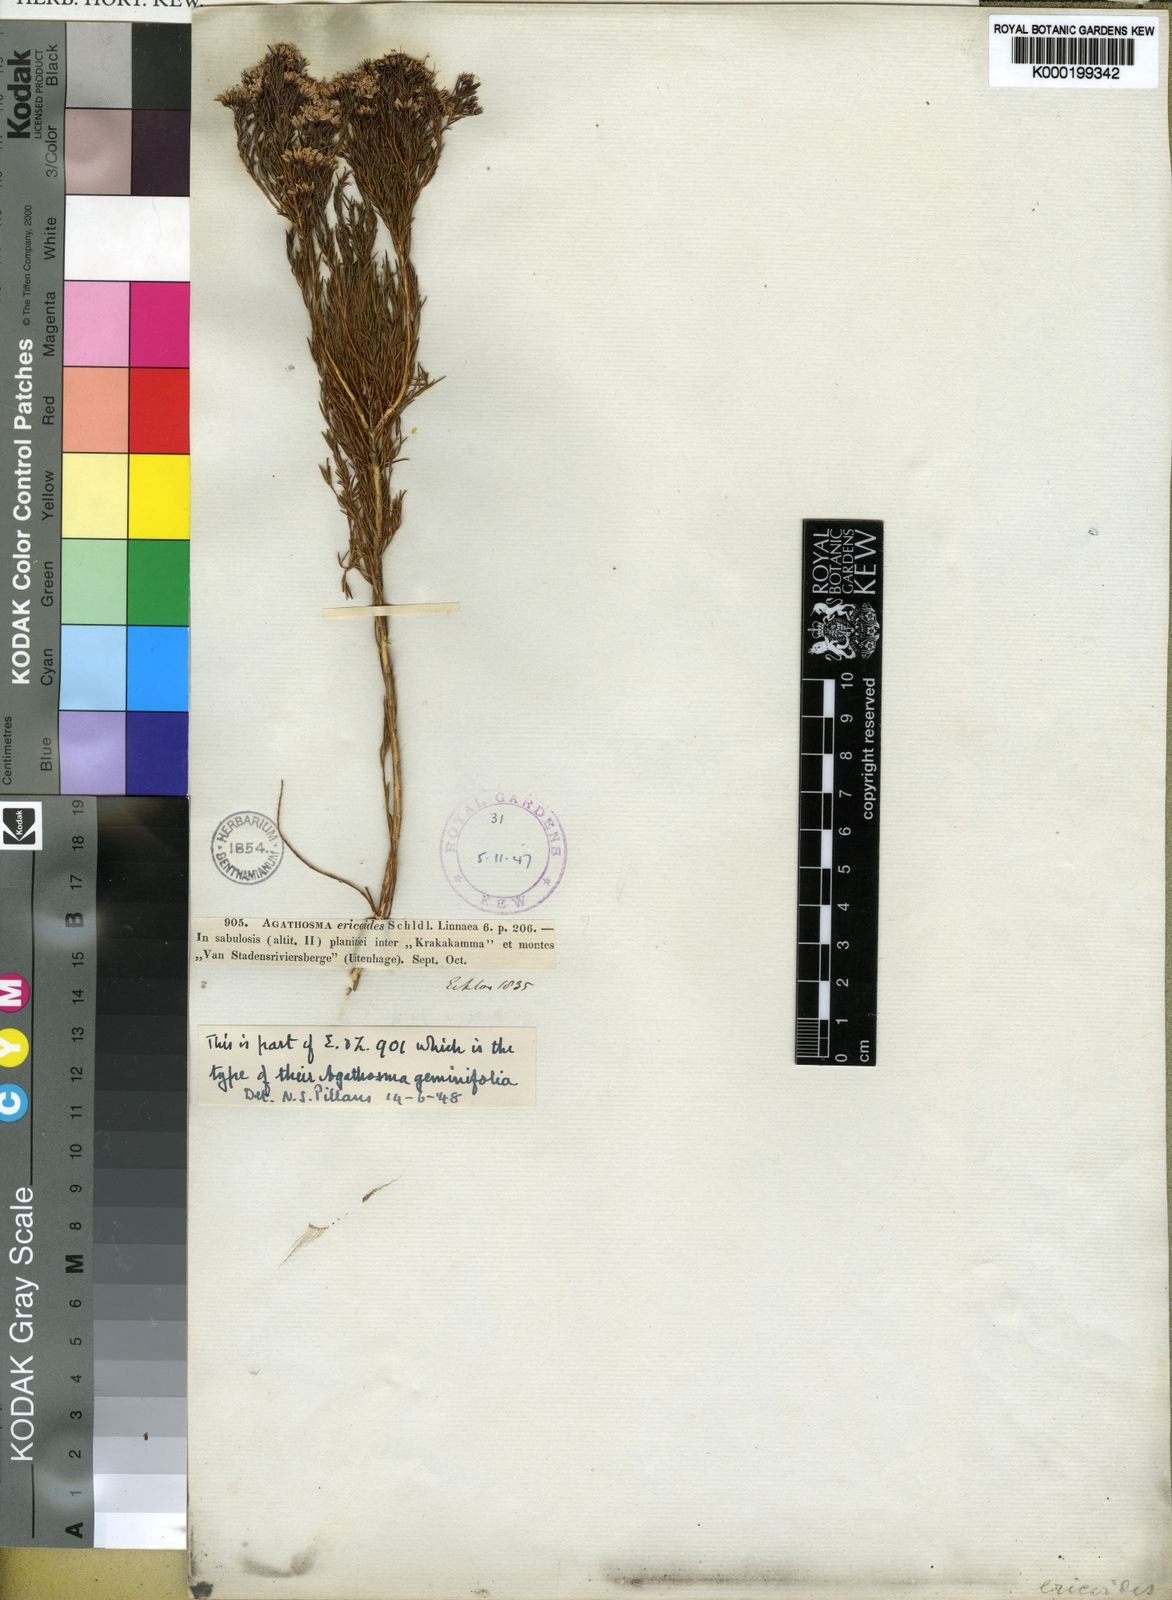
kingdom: Plantae
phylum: Tracheophyta
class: Magnoliopsida
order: Sapindales
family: Rutaceae
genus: Agathosma
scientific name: Agathosma capensis
